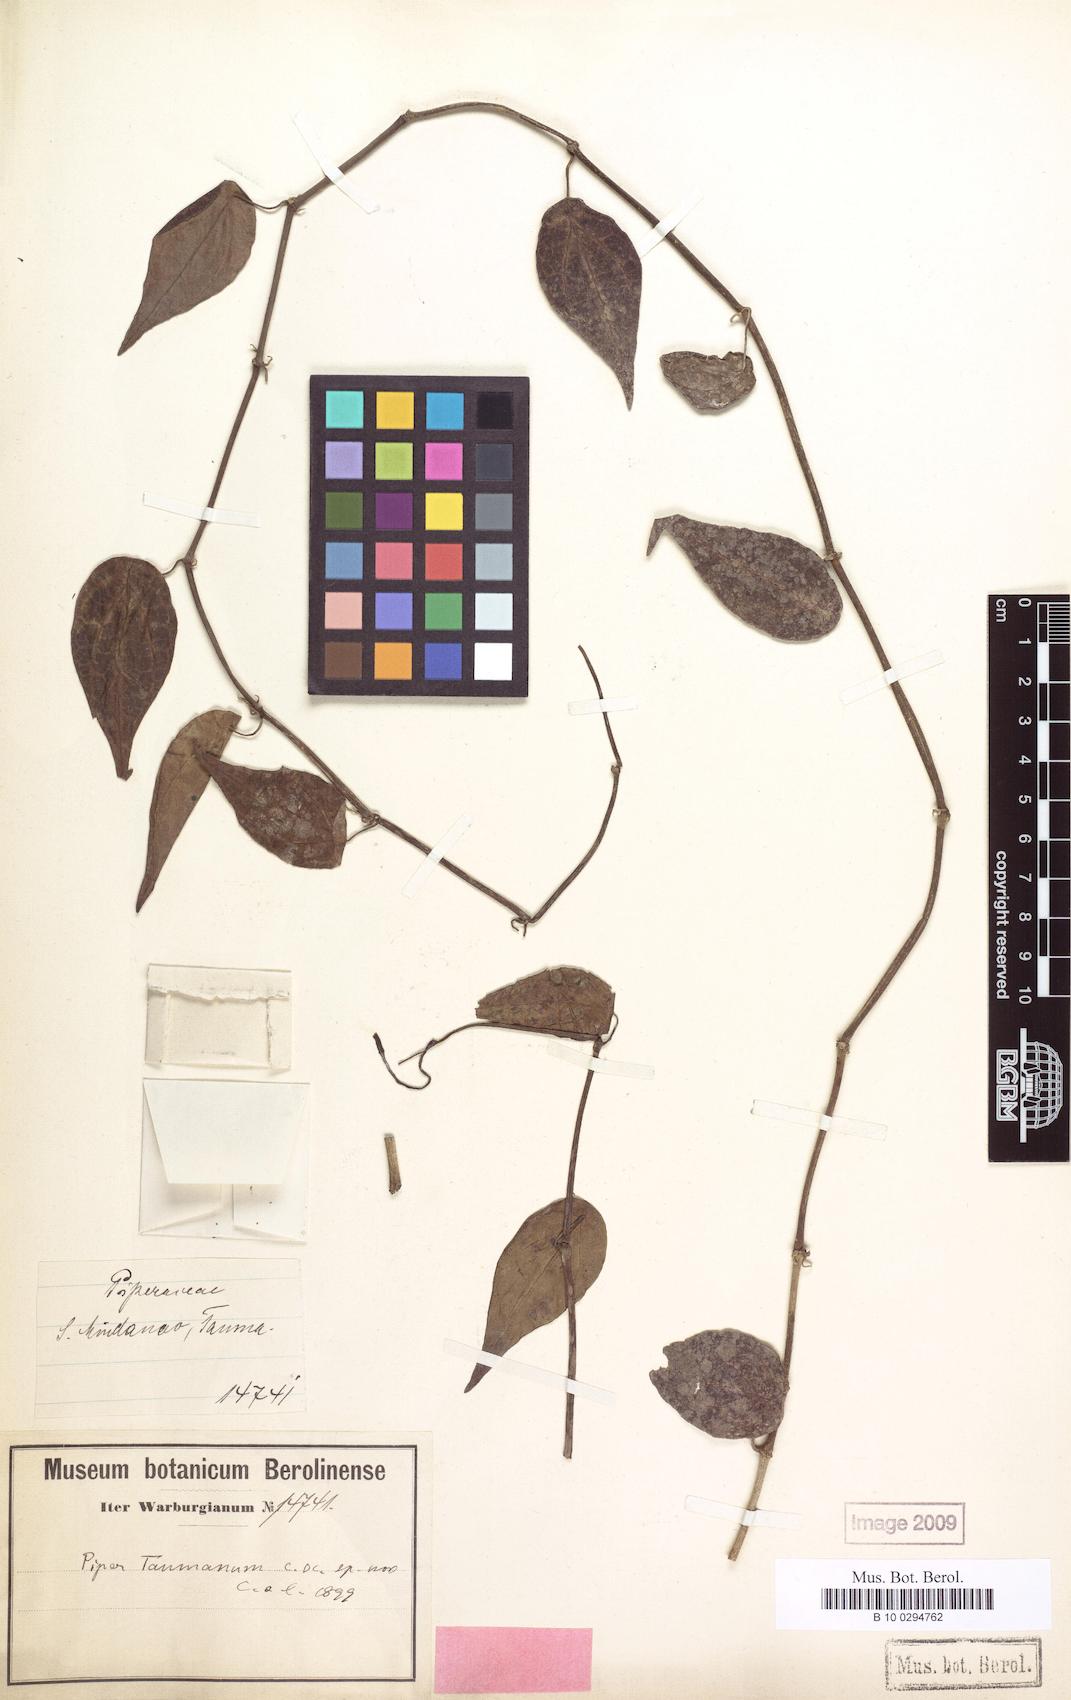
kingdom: Plantae
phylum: Tracheophyta
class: Magnoliopsida
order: Piperales
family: Piperaceae
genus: Piper
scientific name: Piper taumanum
